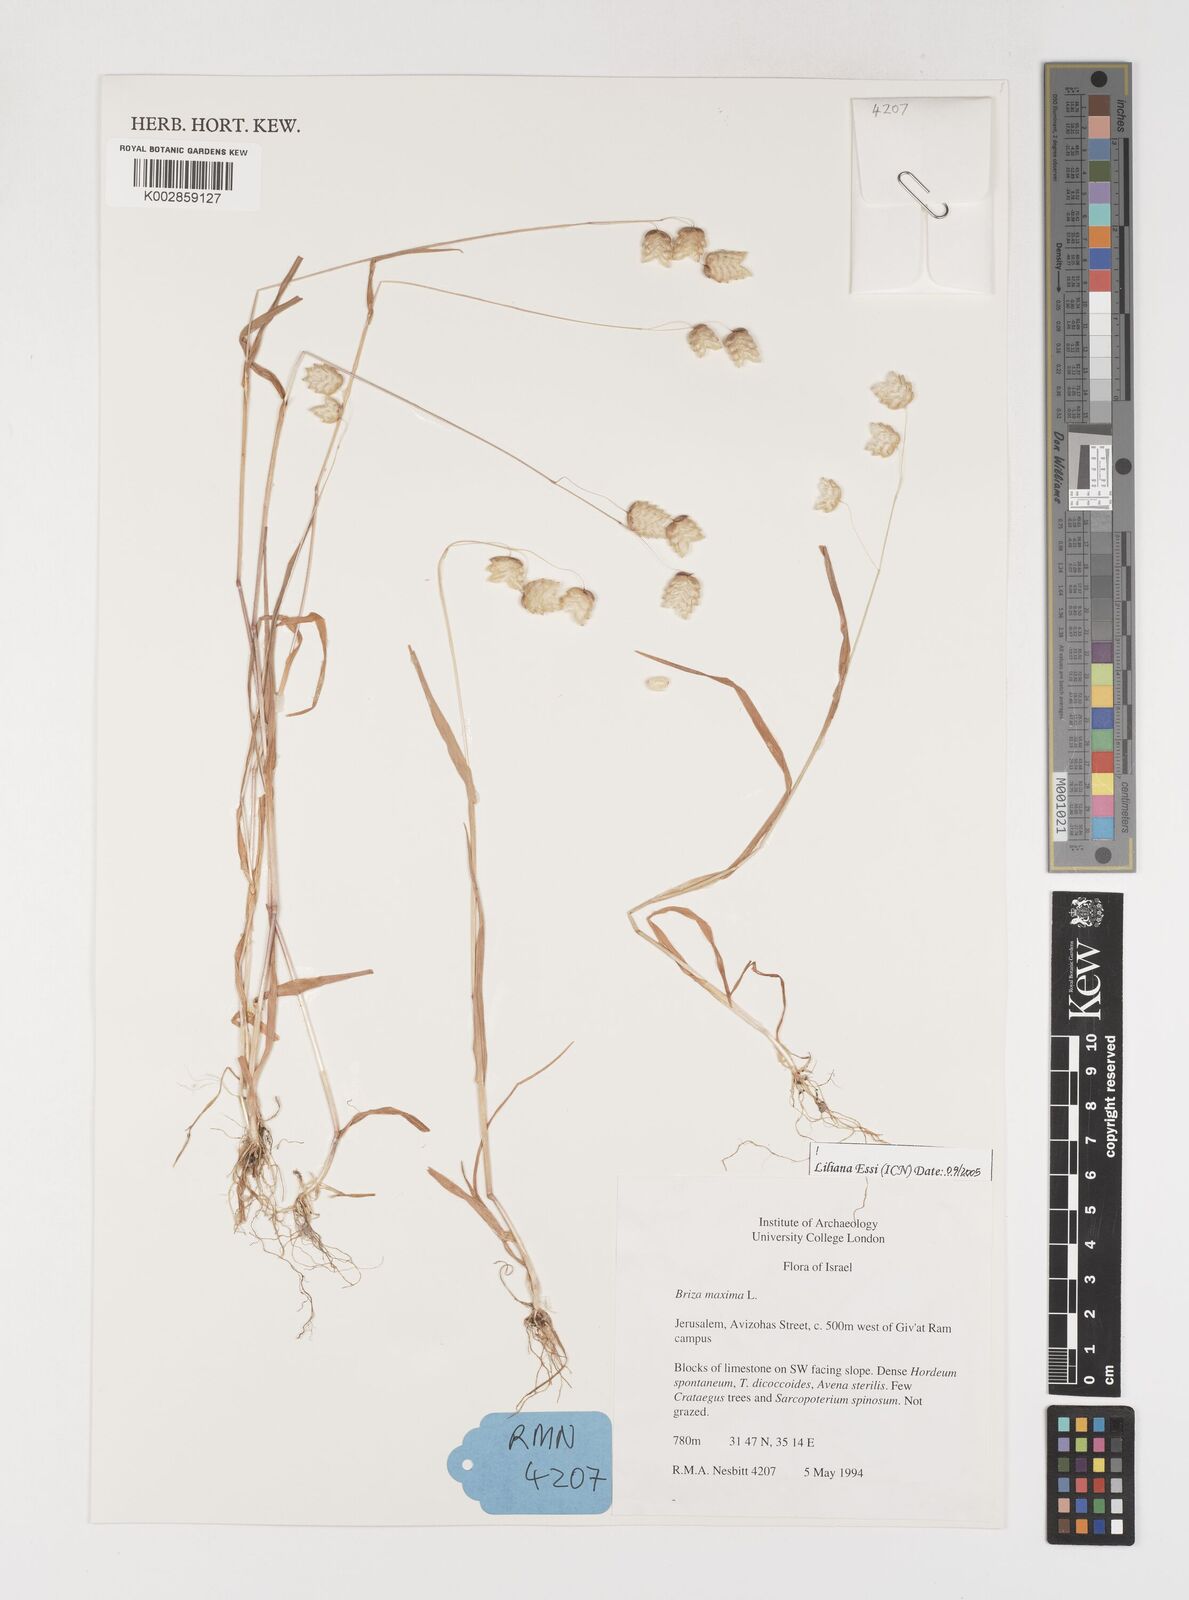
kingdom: Plantae
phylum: Tracheophyta
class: Liliopsida
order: Poales
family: Poaceae
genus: Briza
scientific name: Briza maxima
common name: Big quakinggrass
